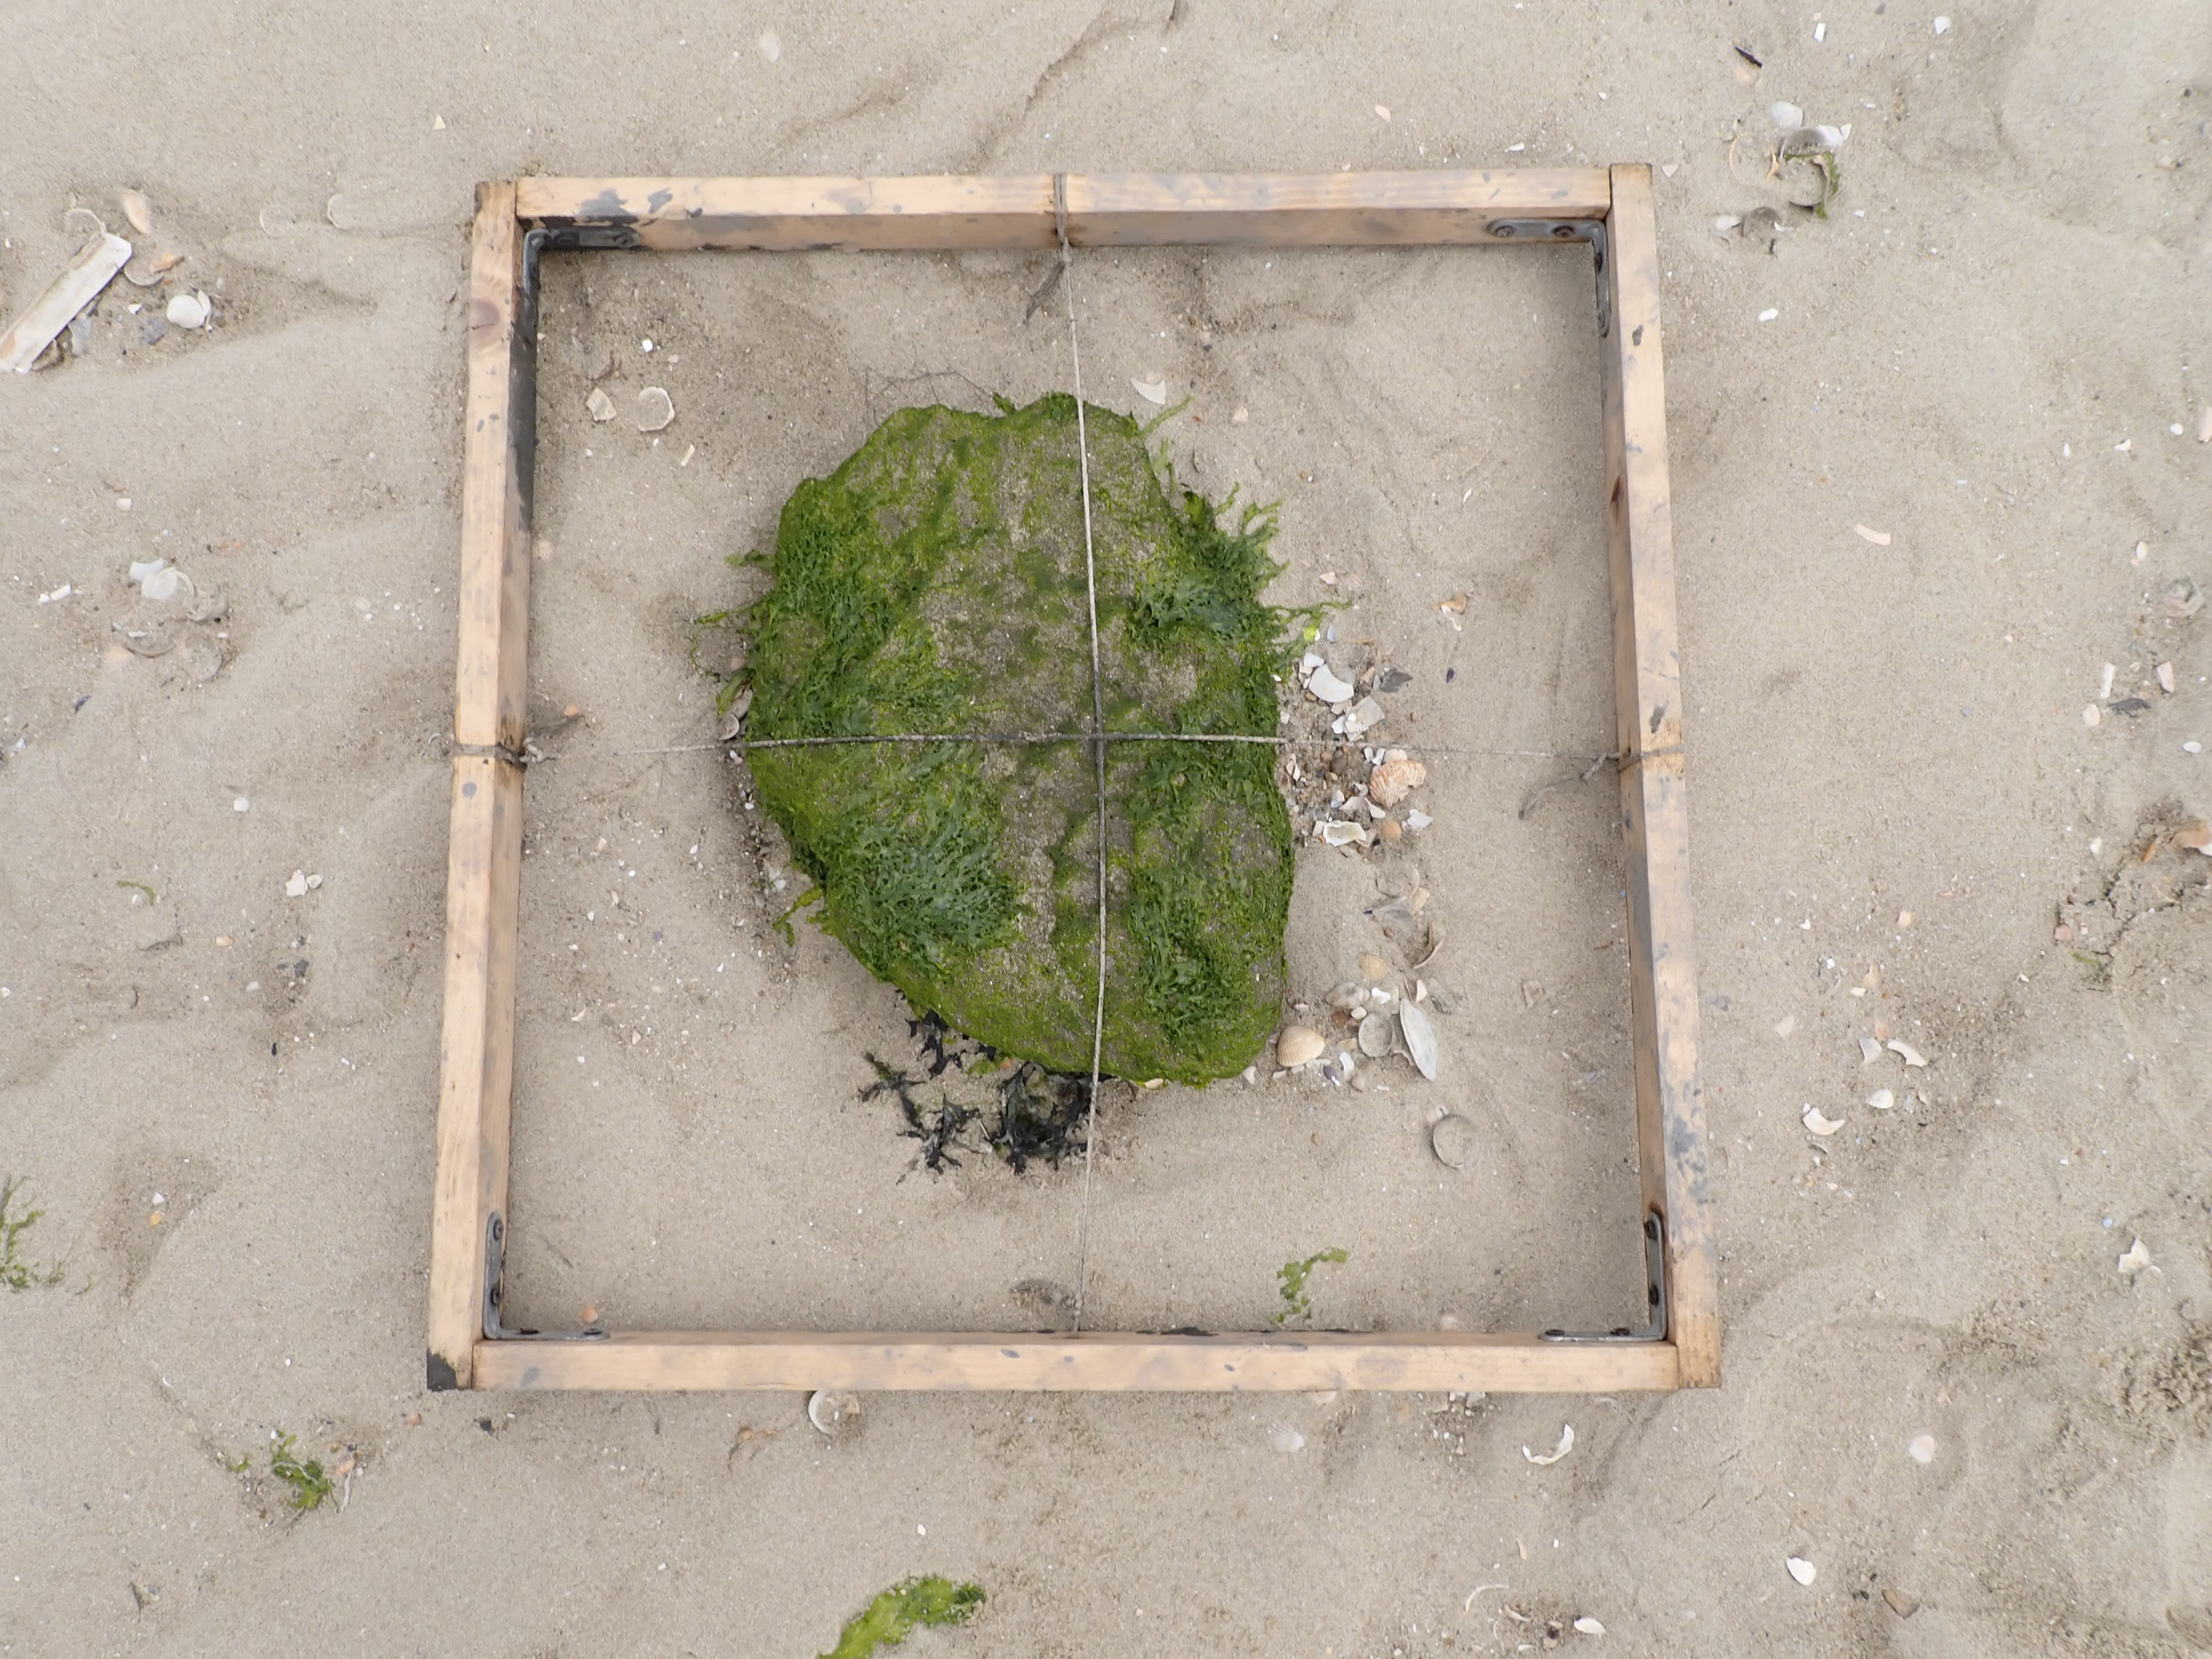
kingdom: Plantae
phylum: Chlorophyta
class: Ulvophyceae
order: Ulvales
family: Ulvaceae
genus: Ulva
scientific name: Ulva
